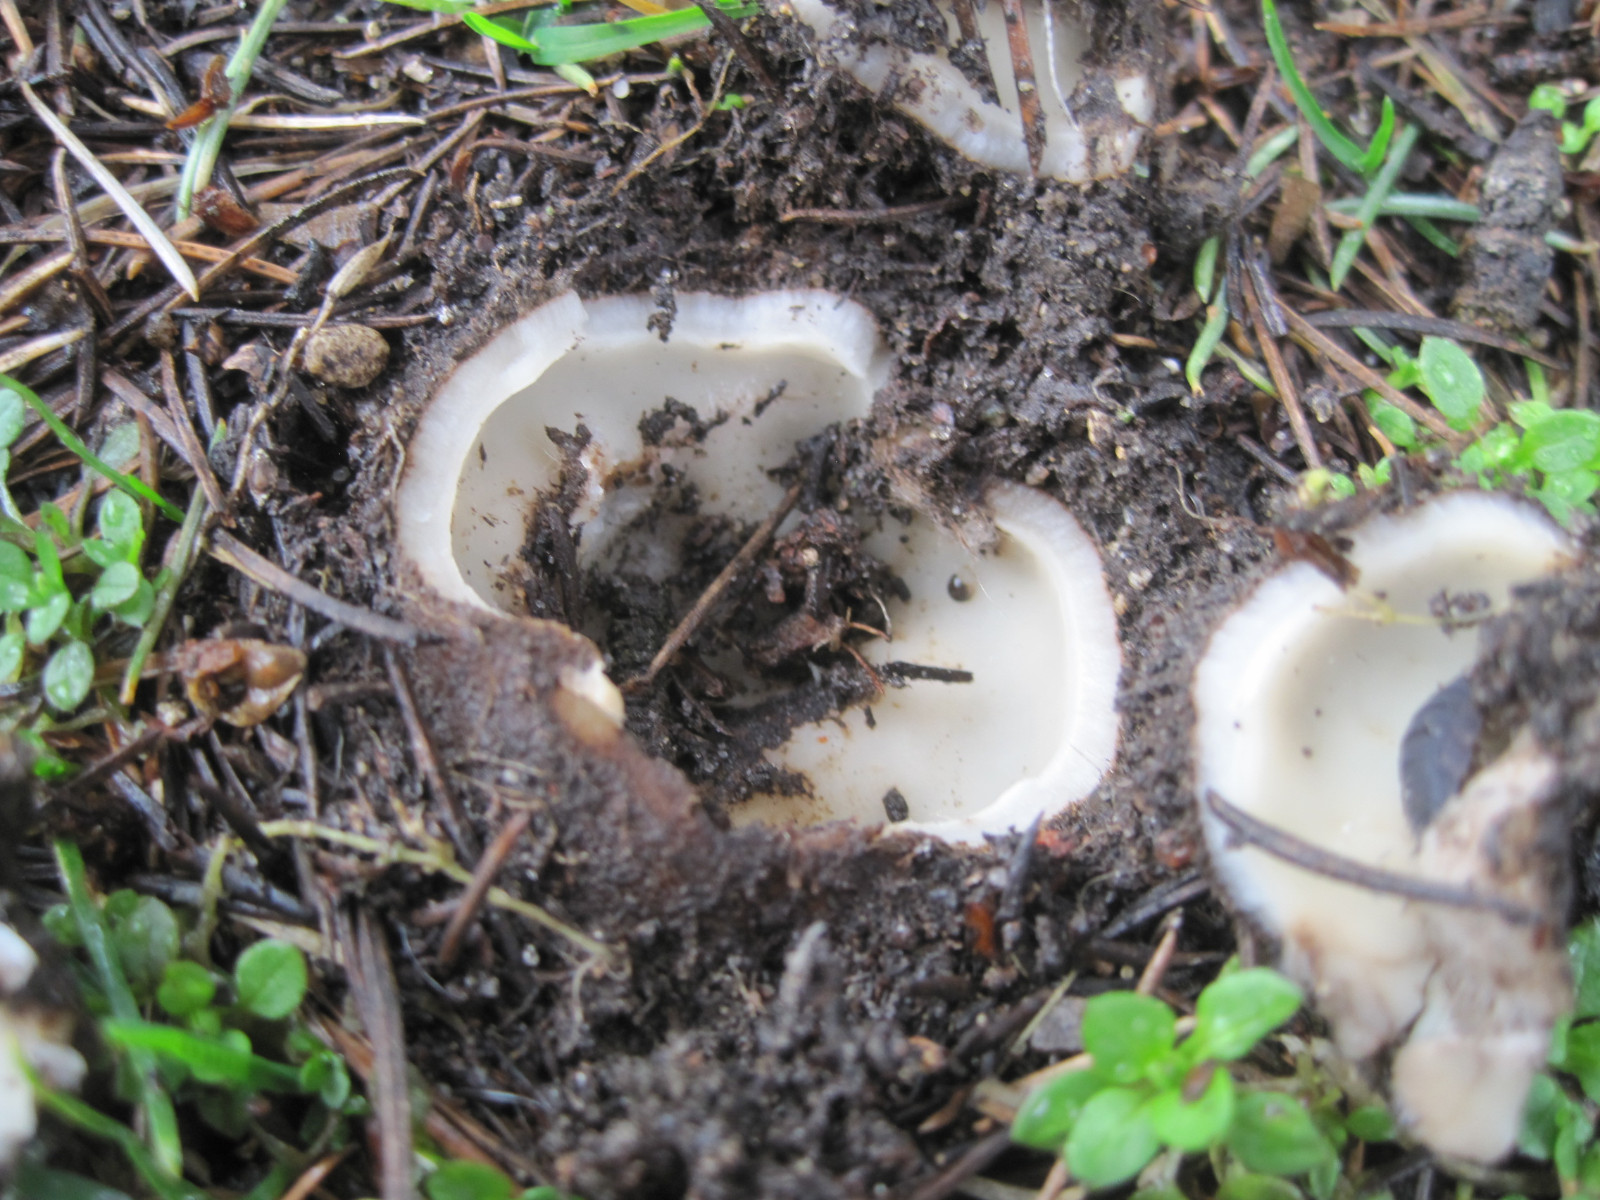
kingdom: Fungi
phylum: Ascomycota
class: Pezizomycetes
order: Pezizales
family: Pyronemataceae
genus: Geopora
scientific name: Geopora sumneriana
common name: vår-jordbæger
